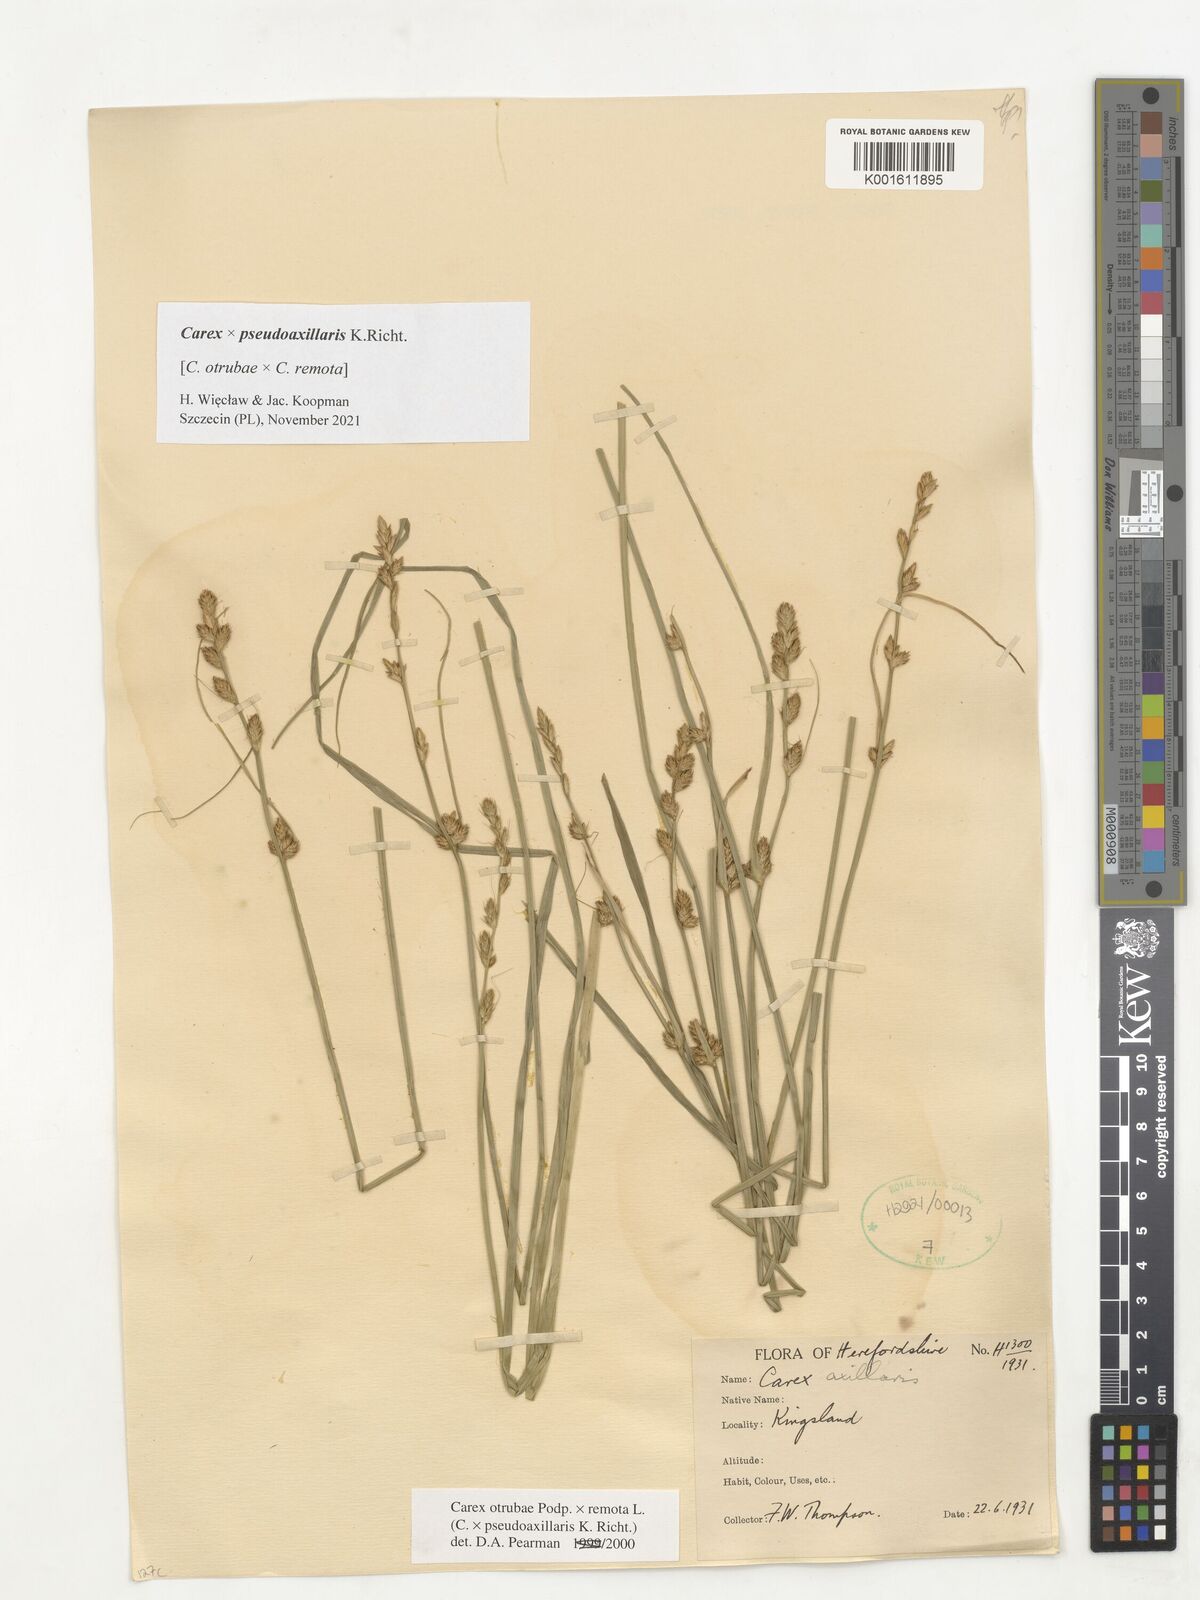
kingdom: Plantae
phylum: Tracheophyta
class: Liliopsida
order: Poales
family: Cyperaceae
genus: Carex
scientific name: Carex pseudoaxillaris
